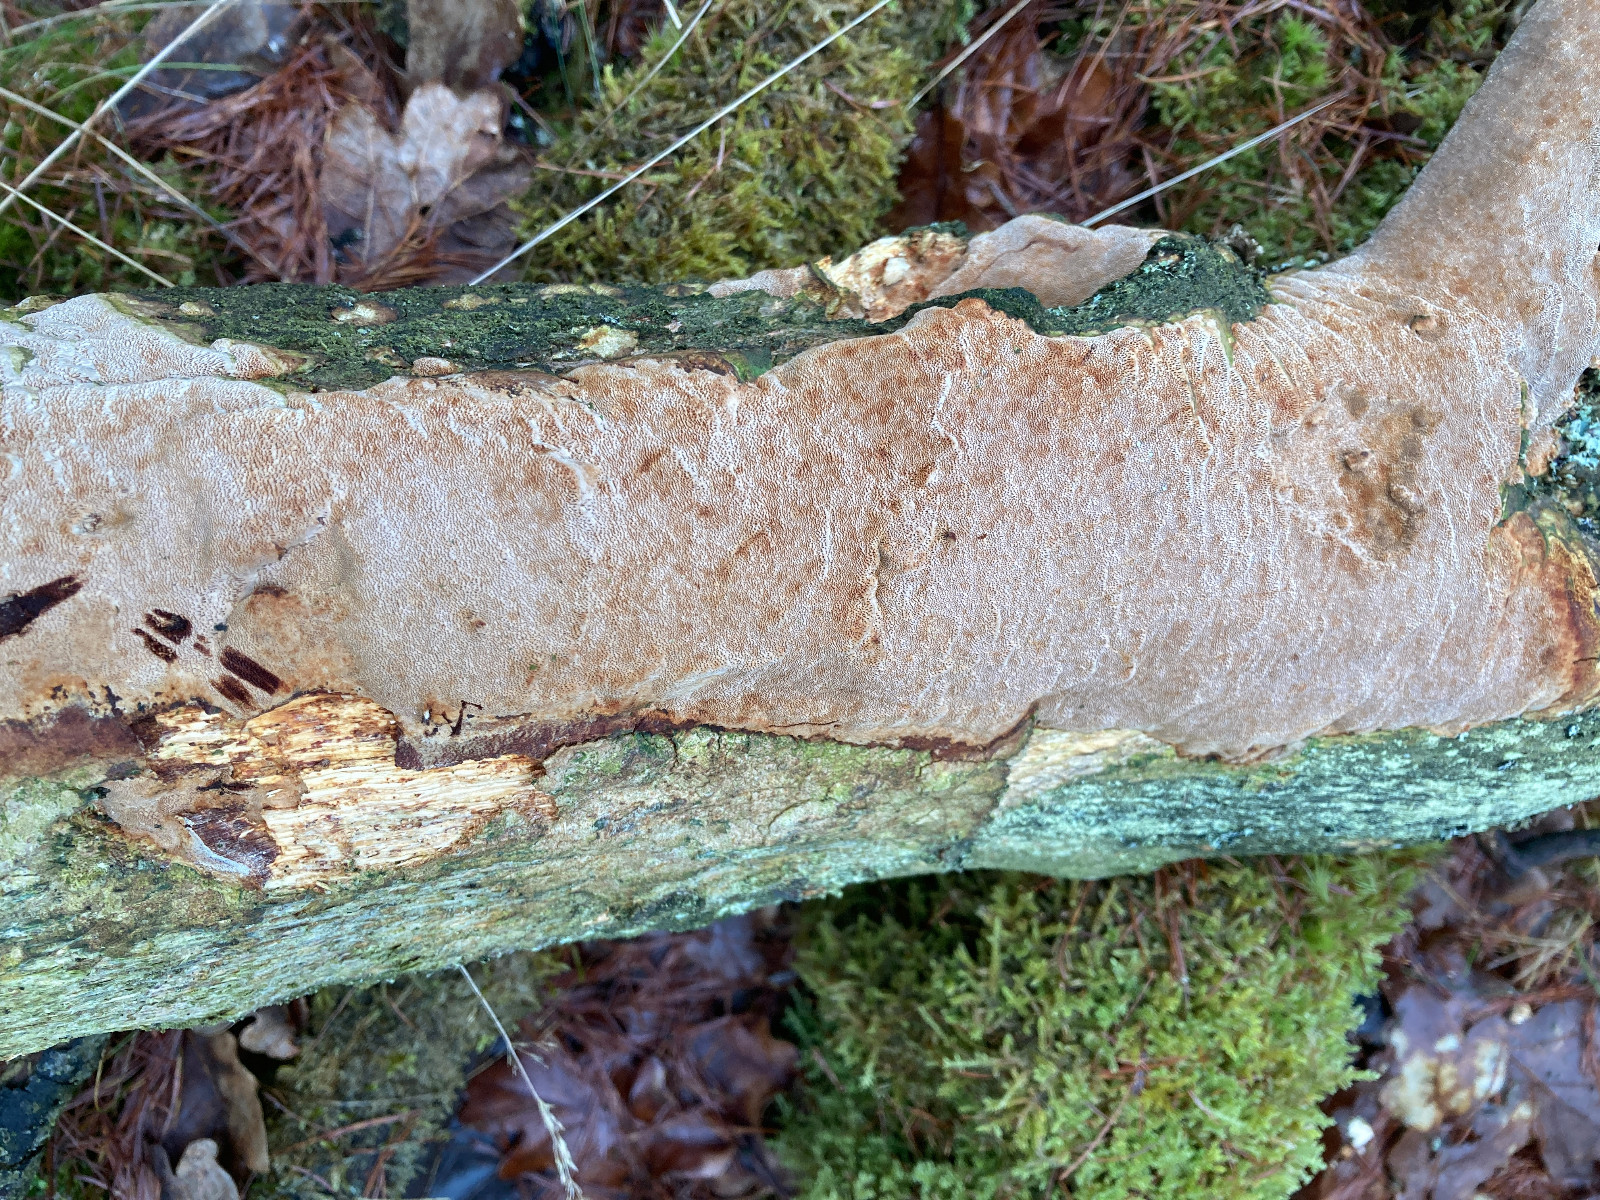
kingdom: Fungi
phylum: Basidiomycota
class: Agaricomycetes
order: Hymenochaetales
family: Hymenochaetaceae
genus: Fuscoporia
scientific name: Fuscoporia ferrea
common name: skorpe-ildporesvamp
